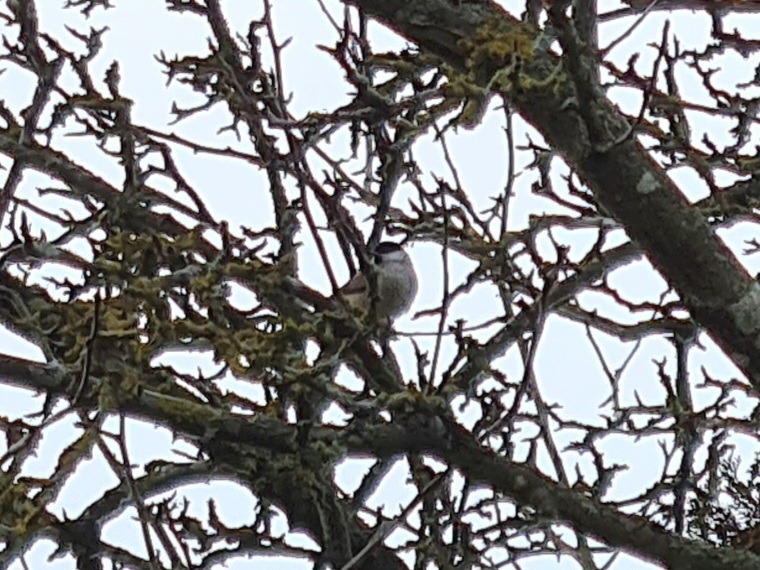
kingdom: Animalia
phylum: Chordata
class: Aves
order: Passeriformes
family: Paridae
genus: Poecile
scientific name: Poecile palustris
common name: Sumpmejse
